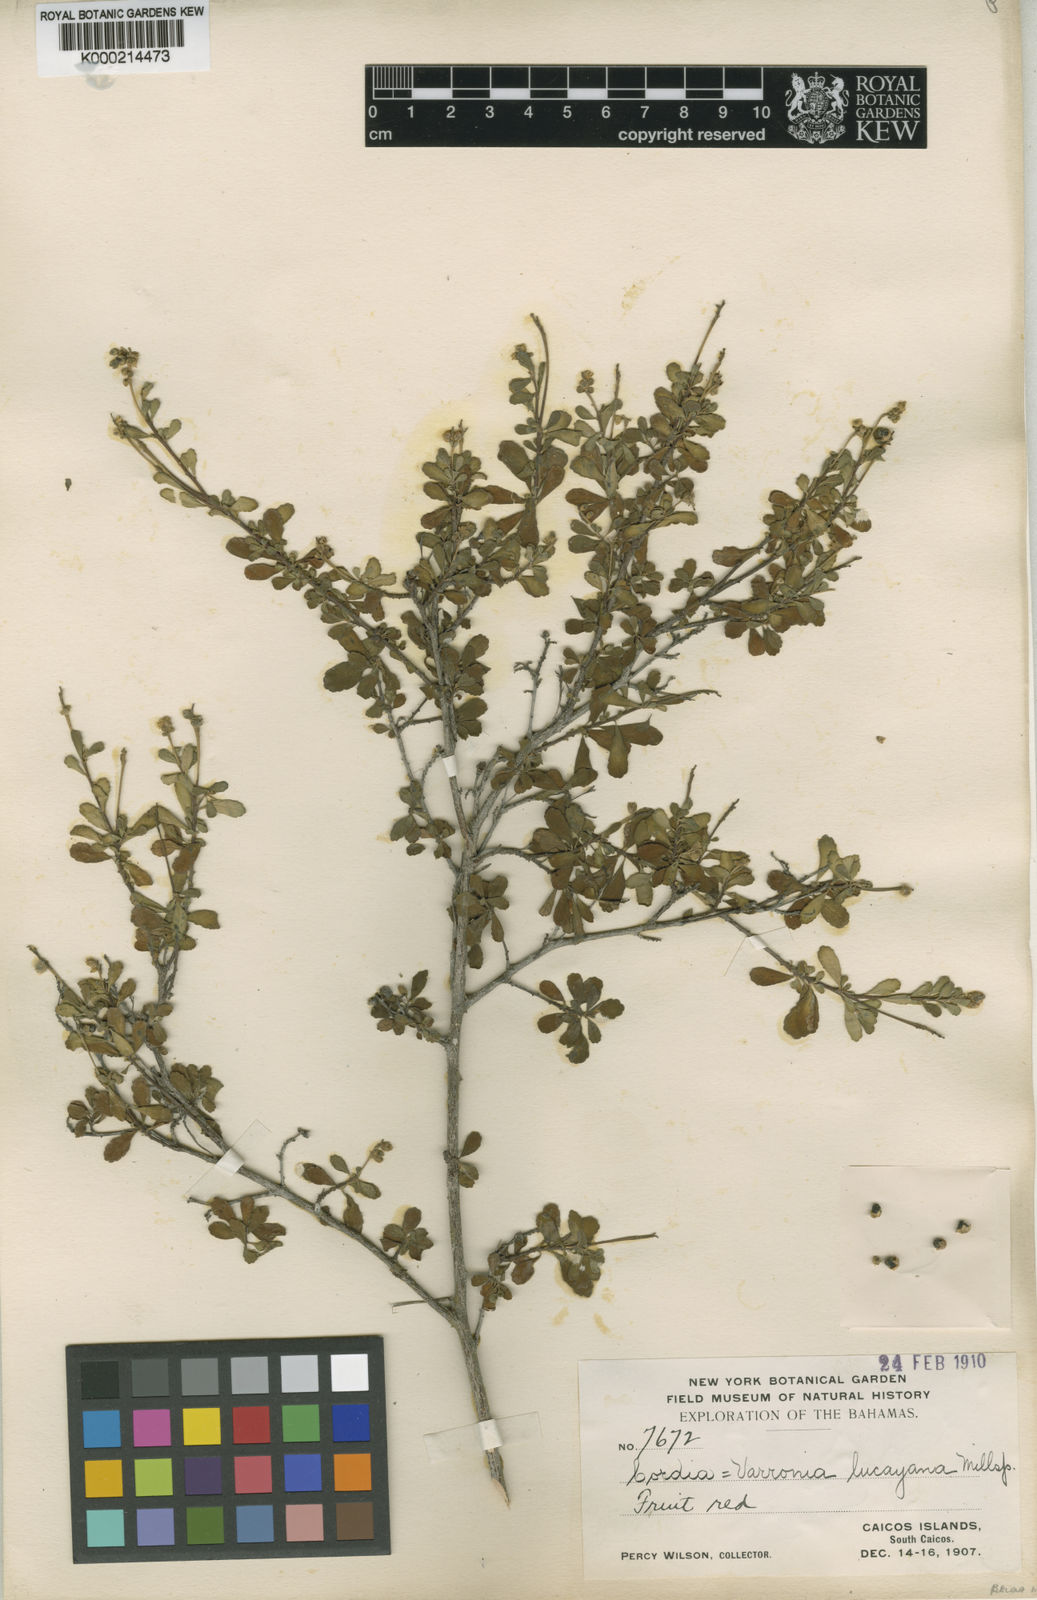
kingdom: Plantae
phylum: Tracheophyta
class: Magnoliopsida
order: Boraginales
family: Cordiaceae
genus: Varronia
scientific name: Varronia lucayana
